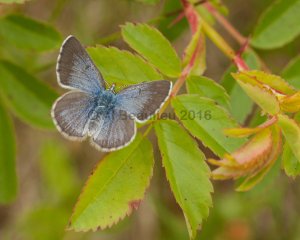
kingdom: Animalia
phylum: Arthropoda
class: Insecta
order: Lepidoptera
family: Lycaenidae
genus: Glaucopsyche
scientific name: Glaucopsyche lygdamus
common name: Silvery Blue
